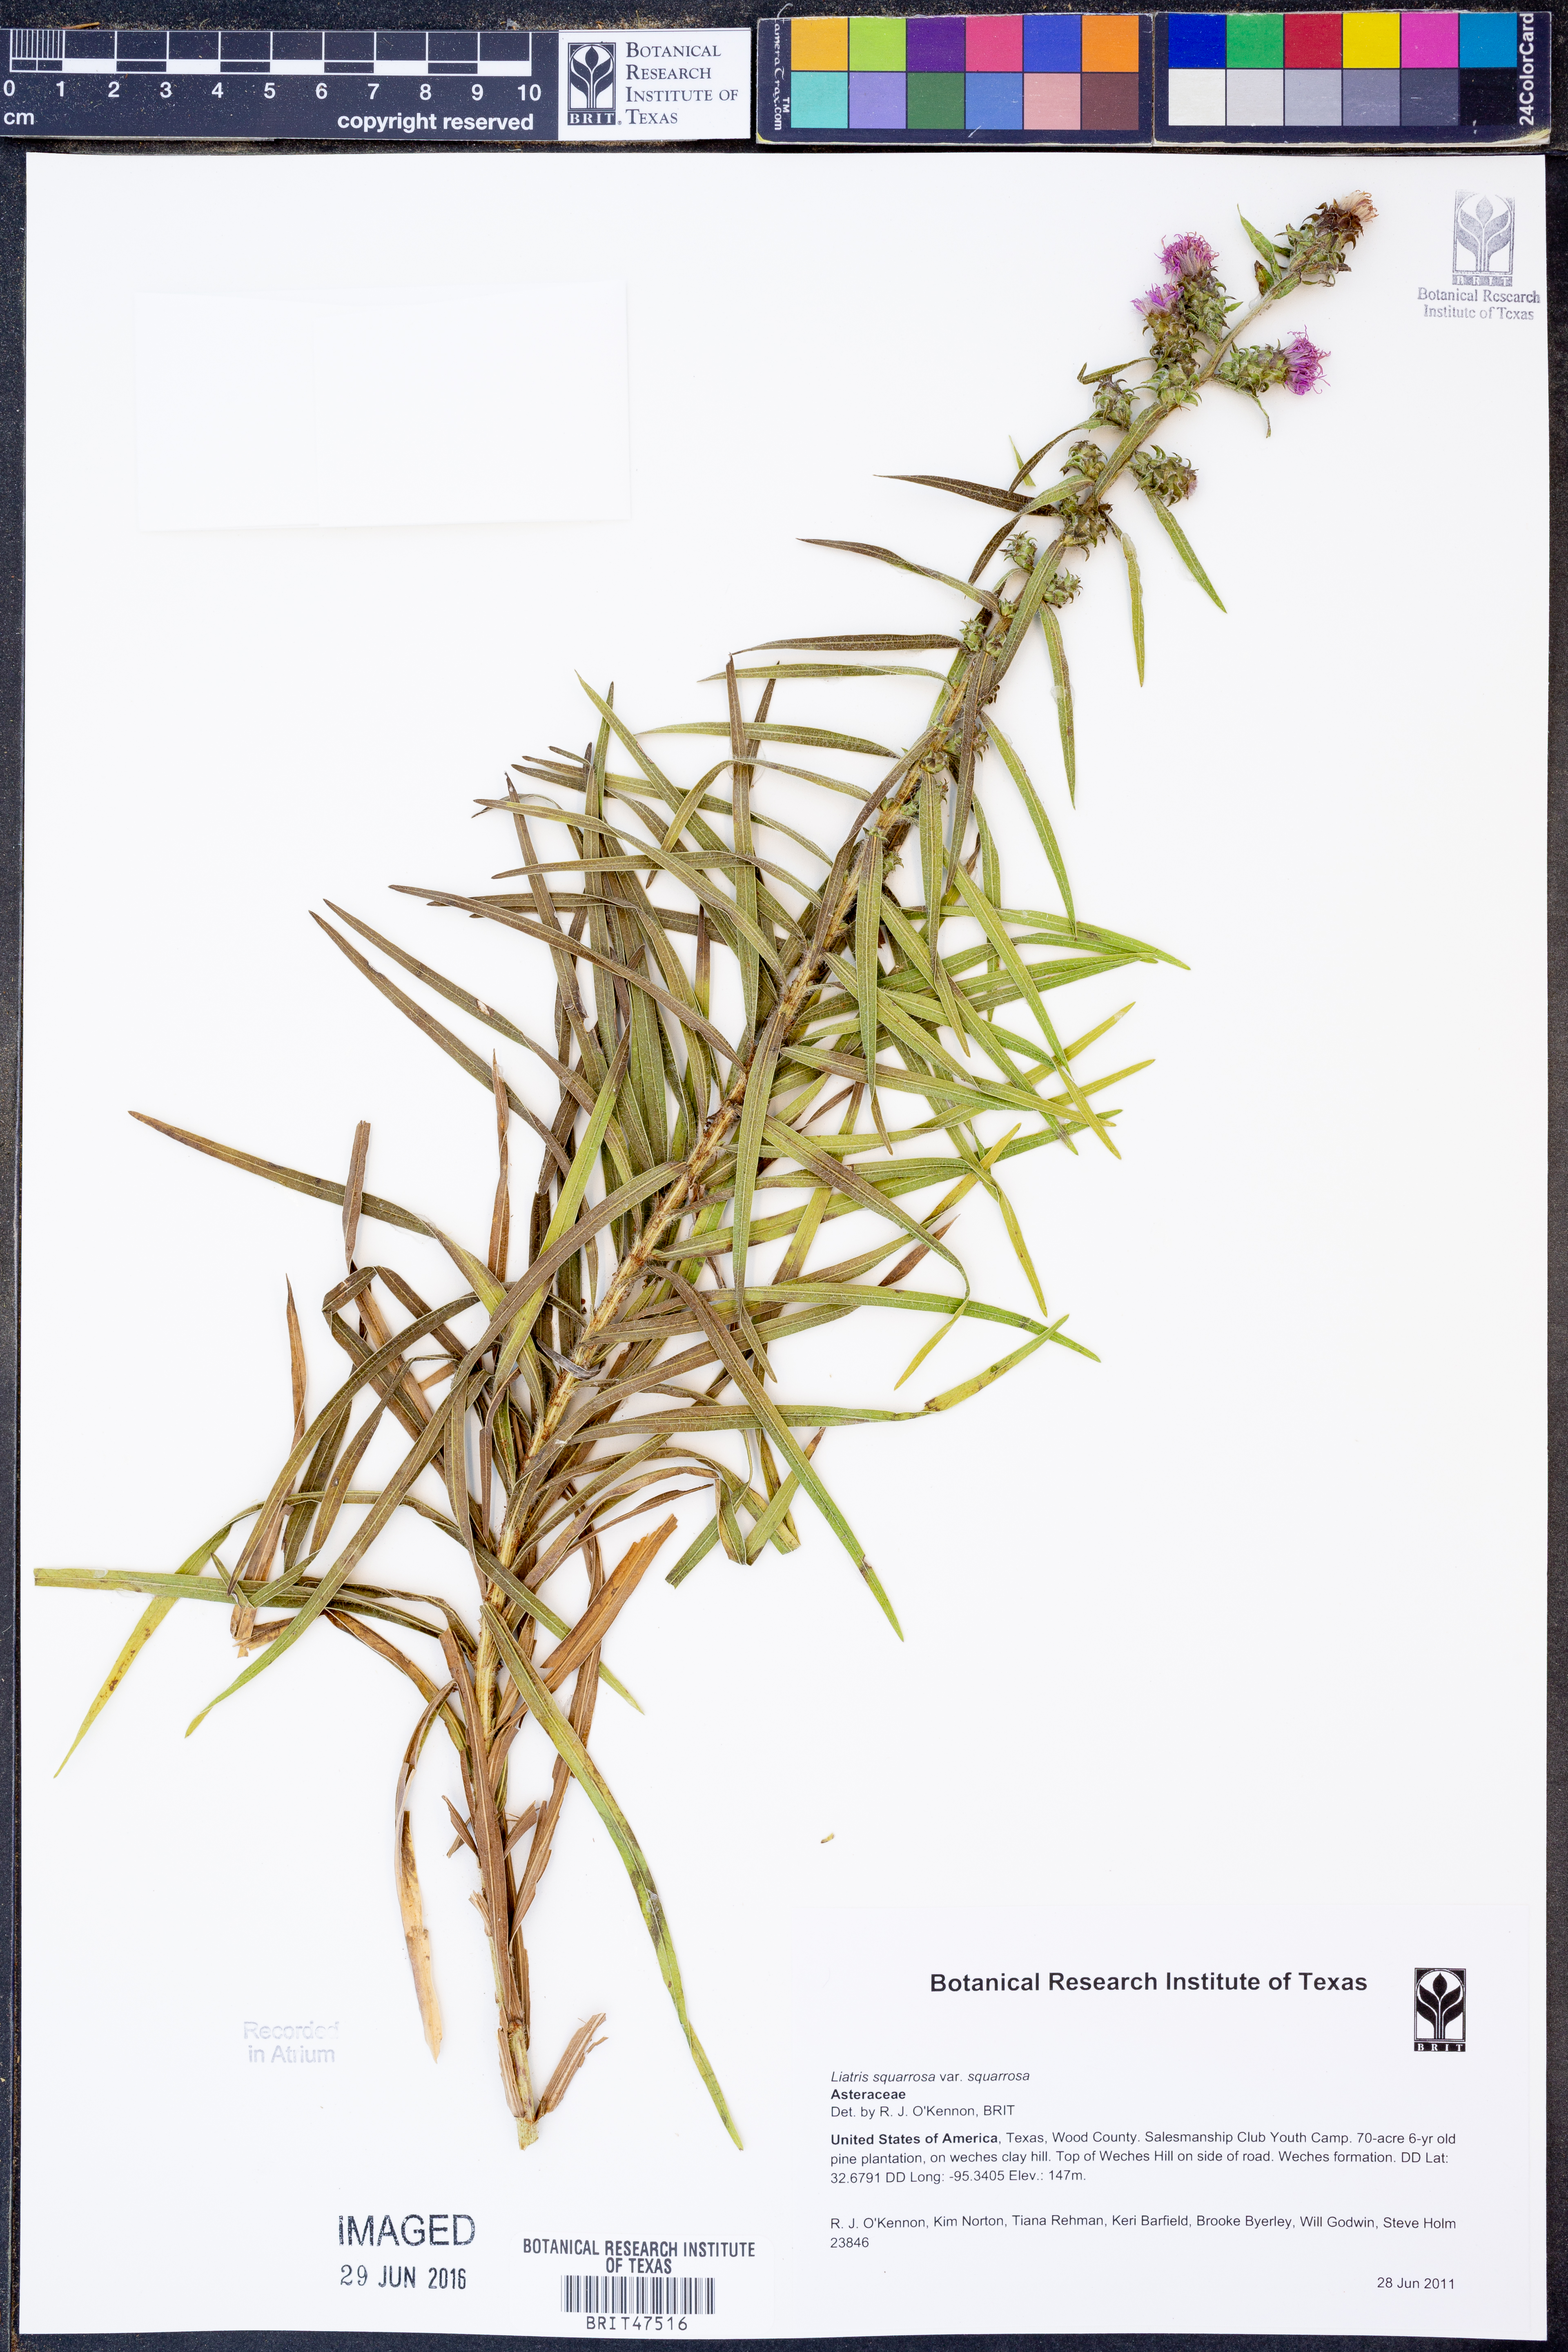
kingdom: Plantae
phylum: Tracheophyta
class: Magnoliopsida
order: Asterales
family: Asteraceae
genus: Liatris
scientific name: Liatris squarrosa
